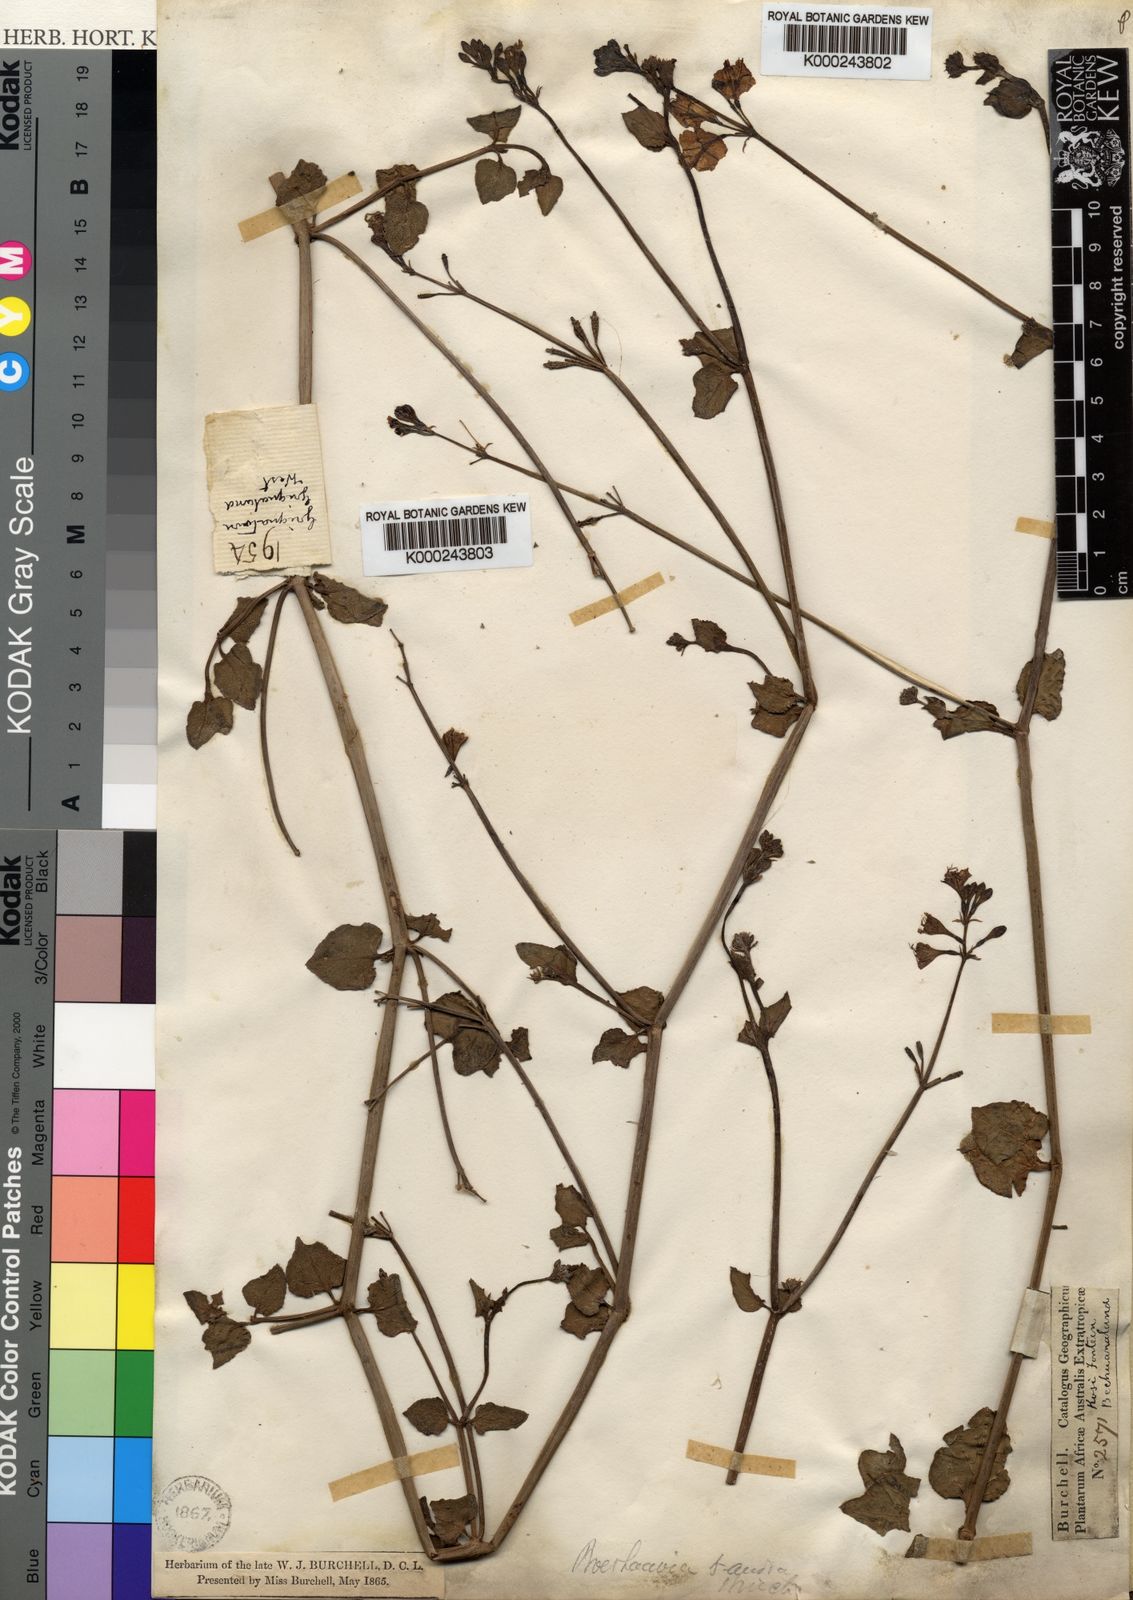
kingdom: Plantae
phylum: Tracheophyta
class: Magnoliopsida
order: Caryophyllales
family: Nyctaginaceae
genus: Commicarpus
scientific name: Commicarpus pentandrus
